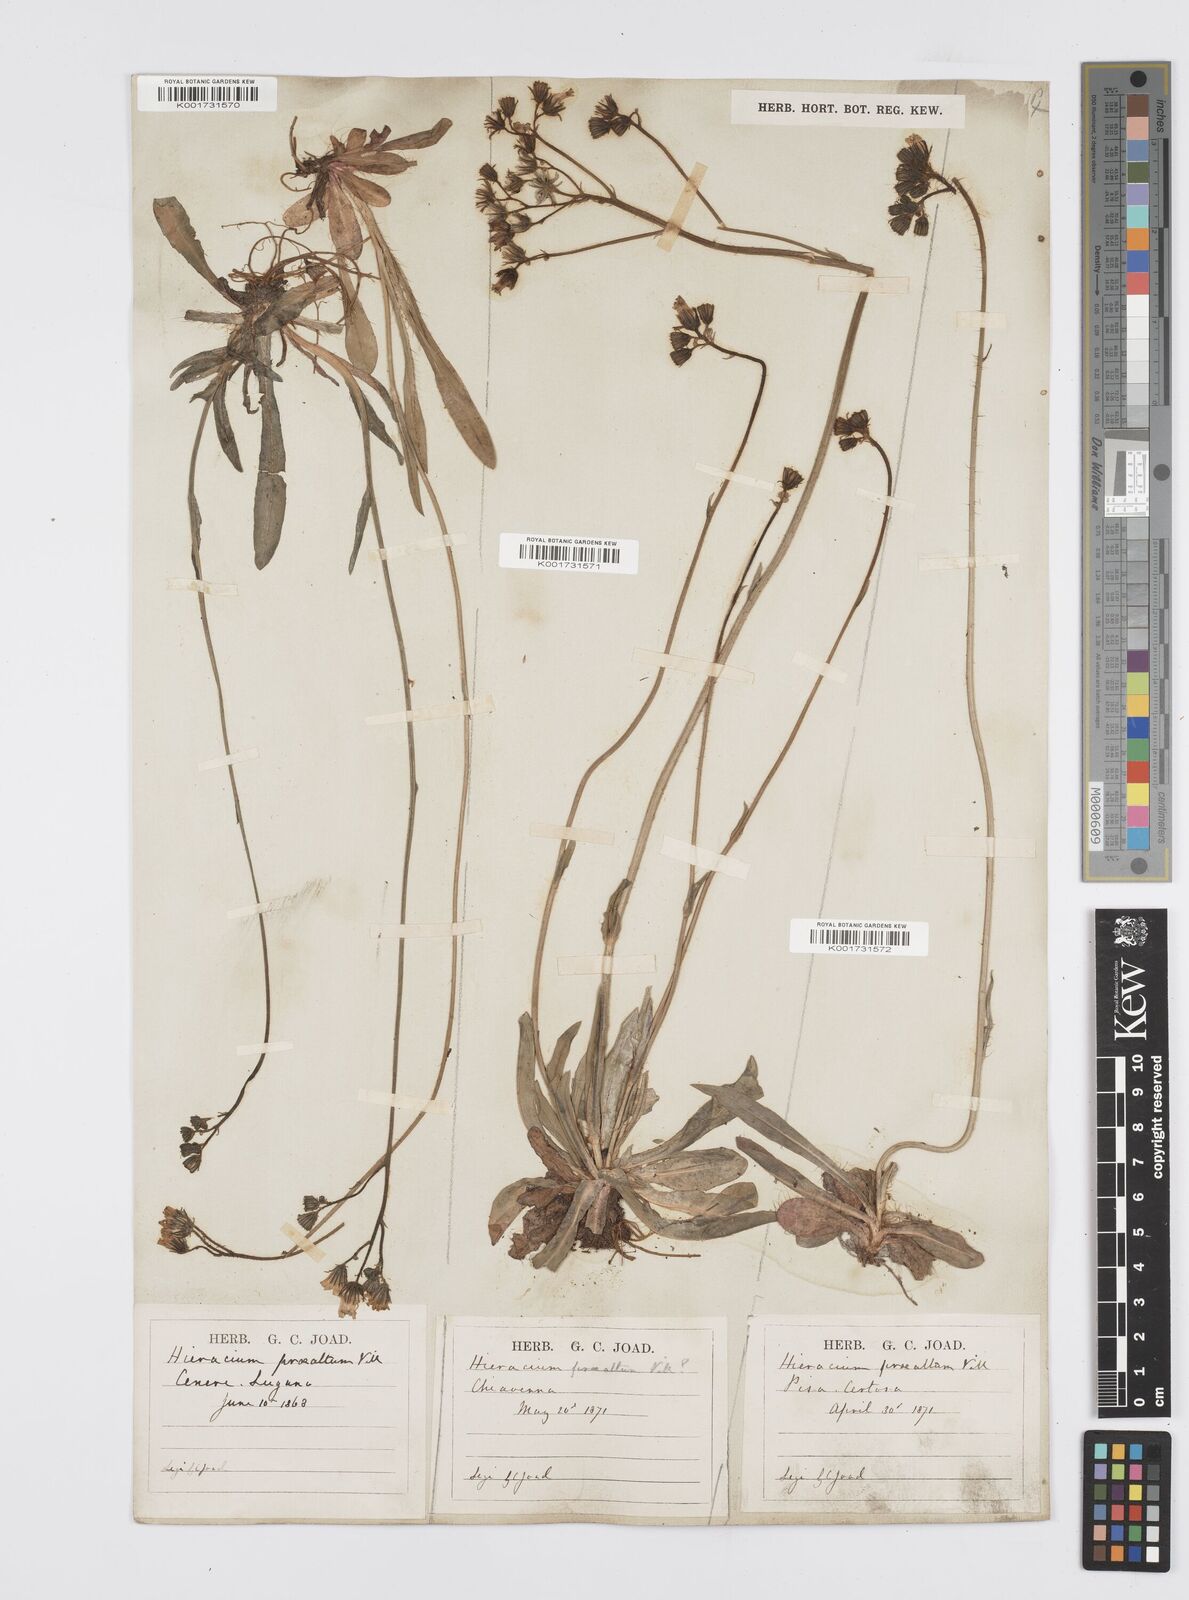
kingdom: Plantae
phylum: Tracheophyta
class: Magnoliopsida
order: Asterales
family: Asteraceae
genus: Pilosella
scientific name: Pilosella piloselloides
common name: Glaucous king-devil
